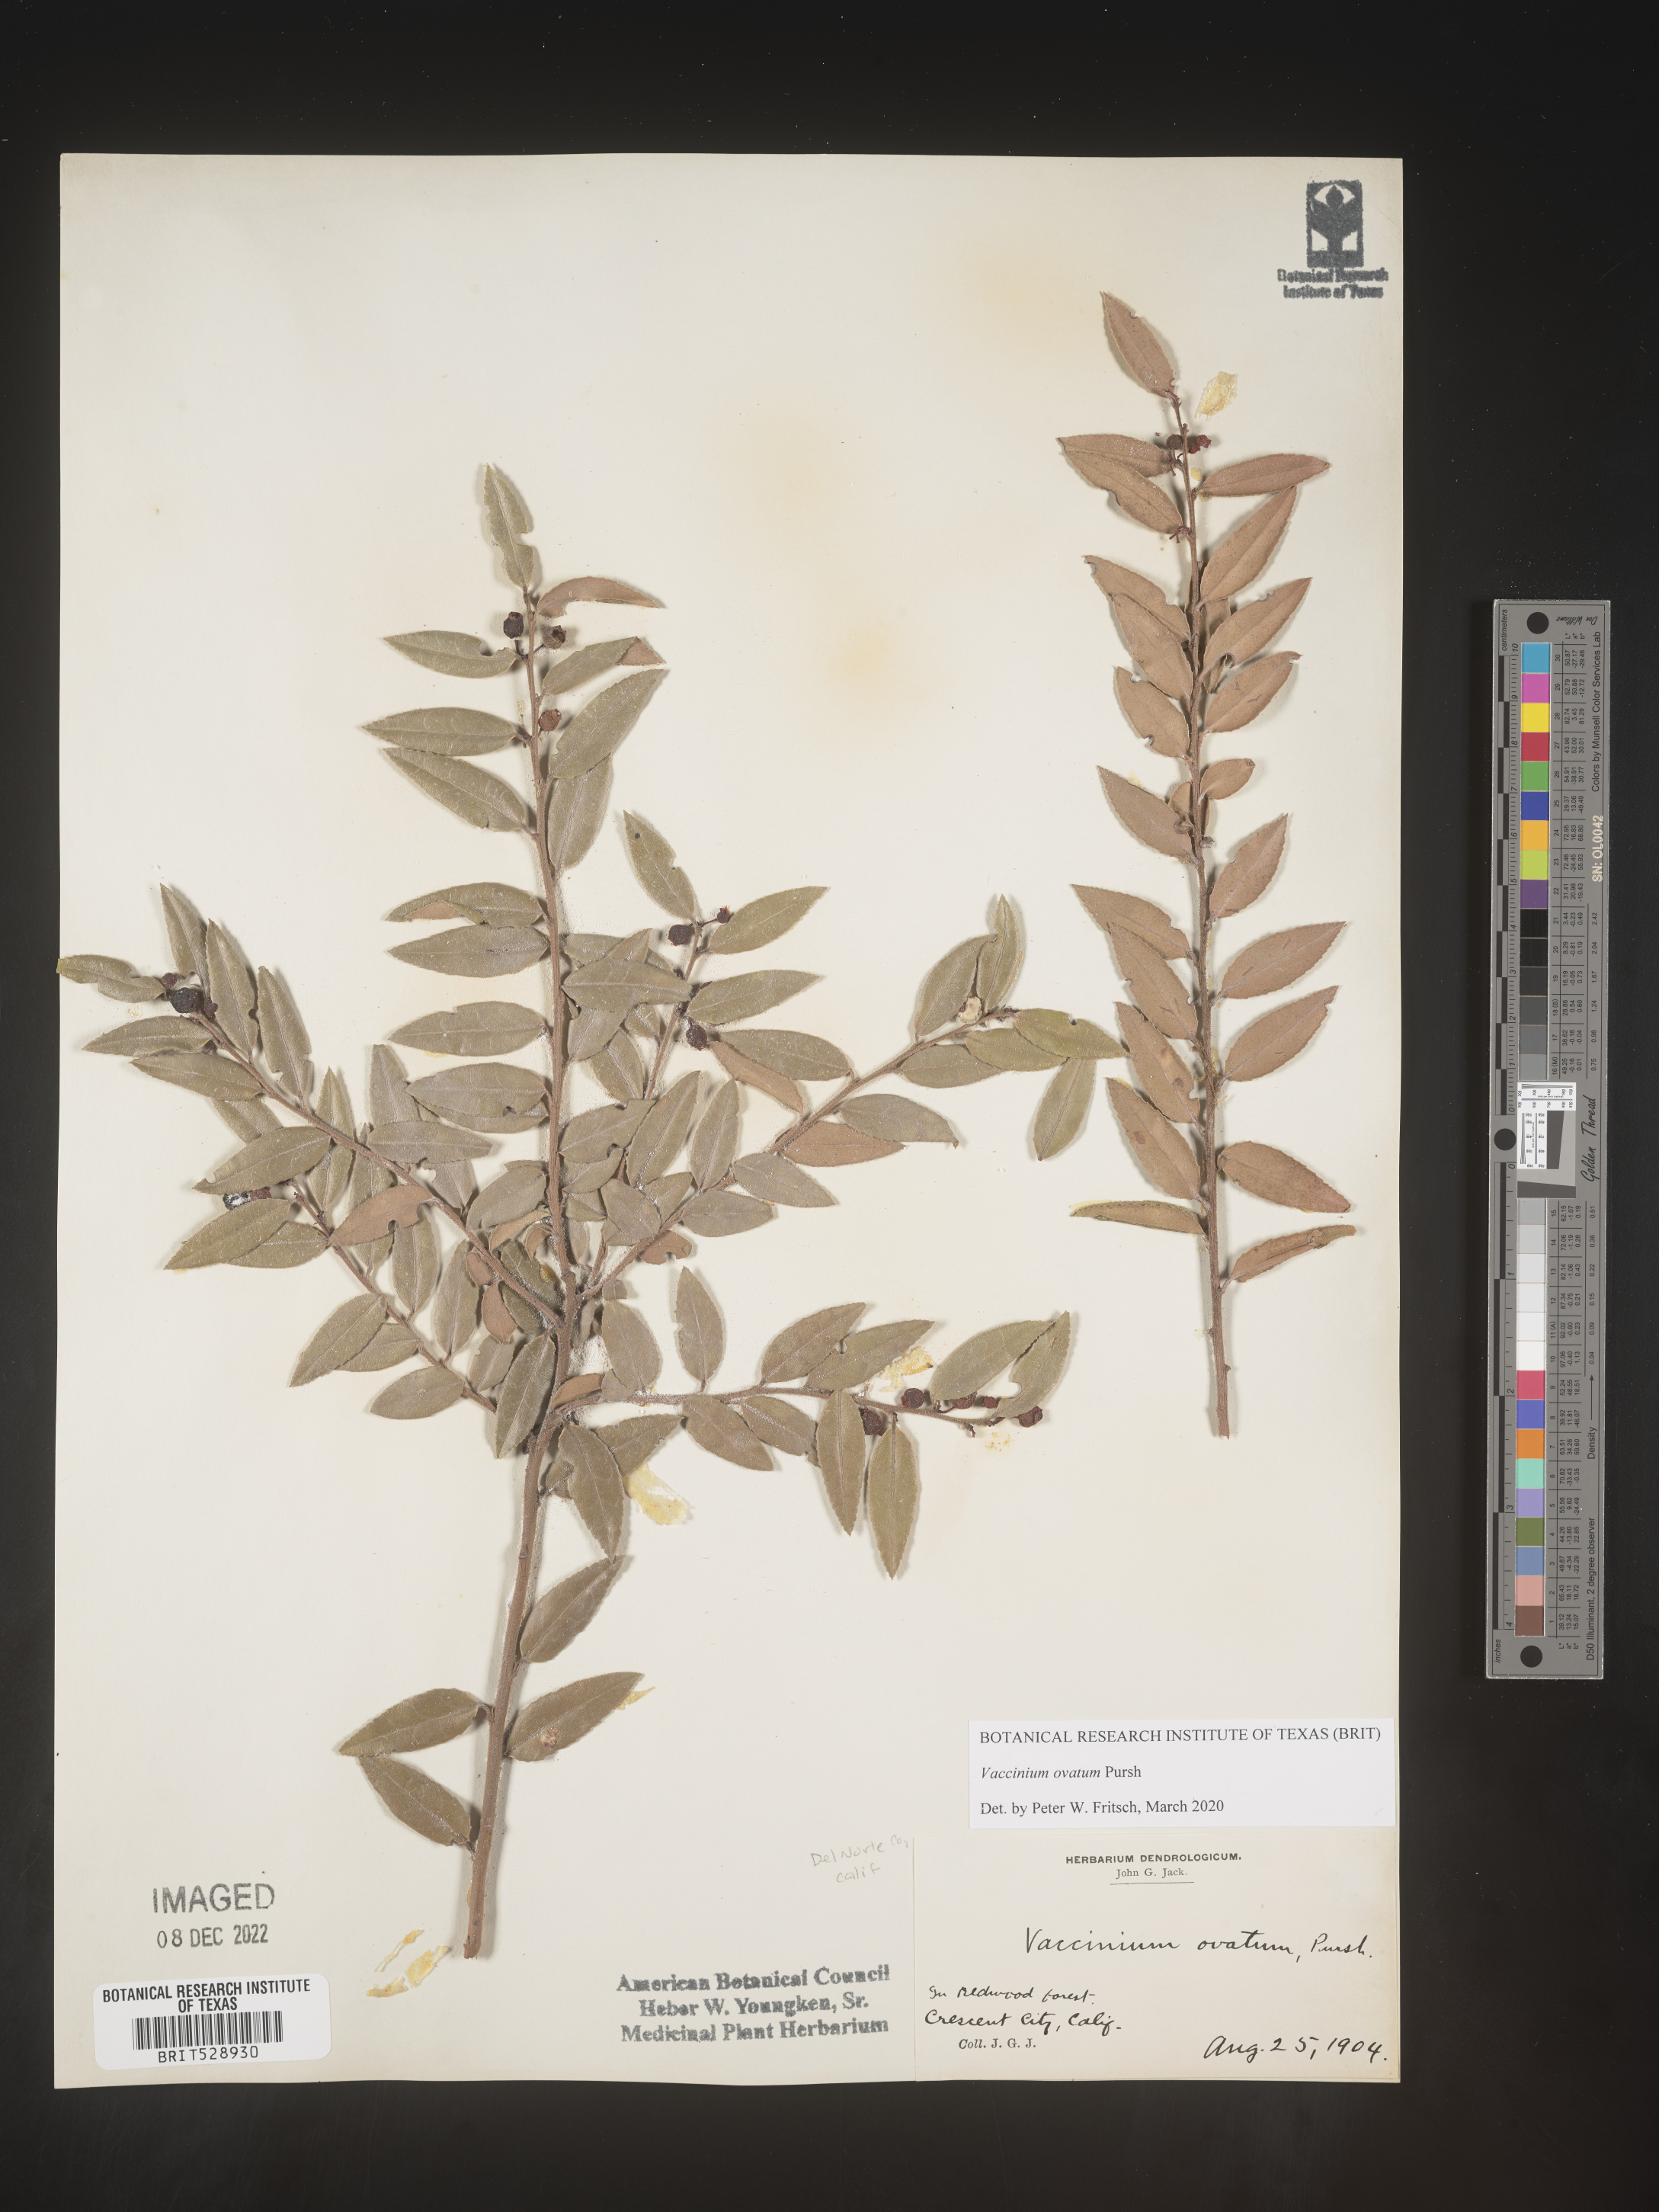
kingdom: Plantae
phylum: Tracheophyta
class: Magnoliopsida
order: Ericales
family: Ericaceae
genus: Vaccinium
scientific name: Vaccinium ovatum
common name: California-huckleberry
